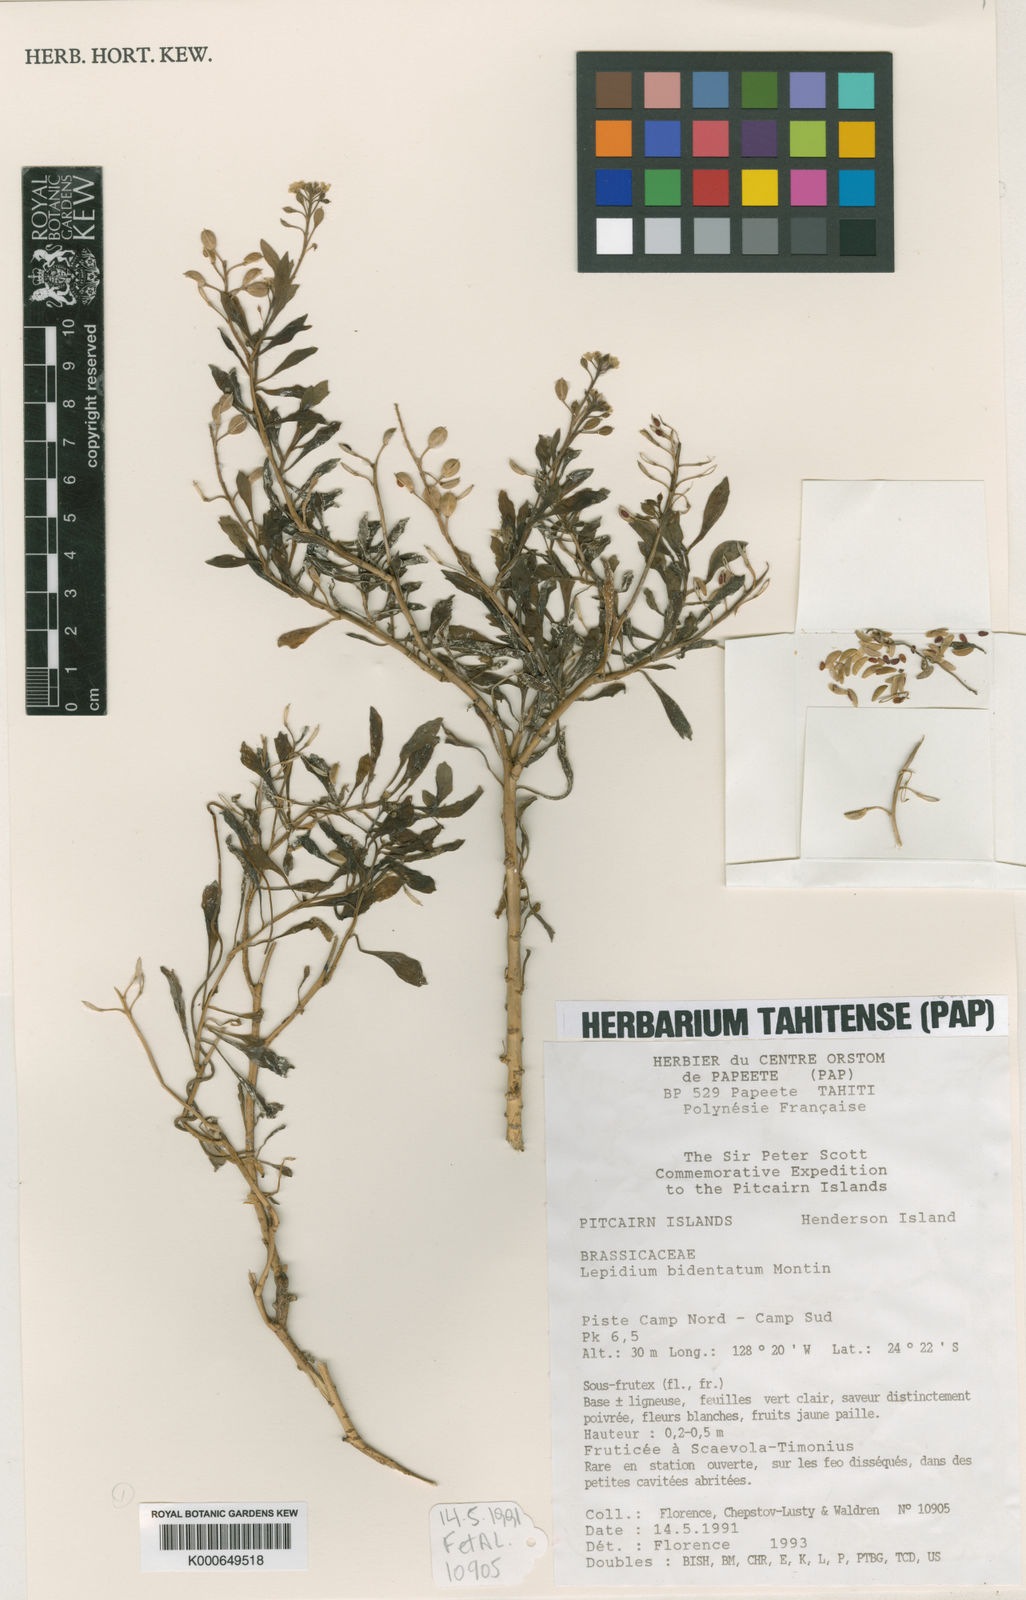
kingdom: Plantae
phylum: Tracheophyta
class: Magnoliopsida
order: Brassicales
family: Brassicaceae
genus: Lepidium
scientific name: Lepidium bidentatum
